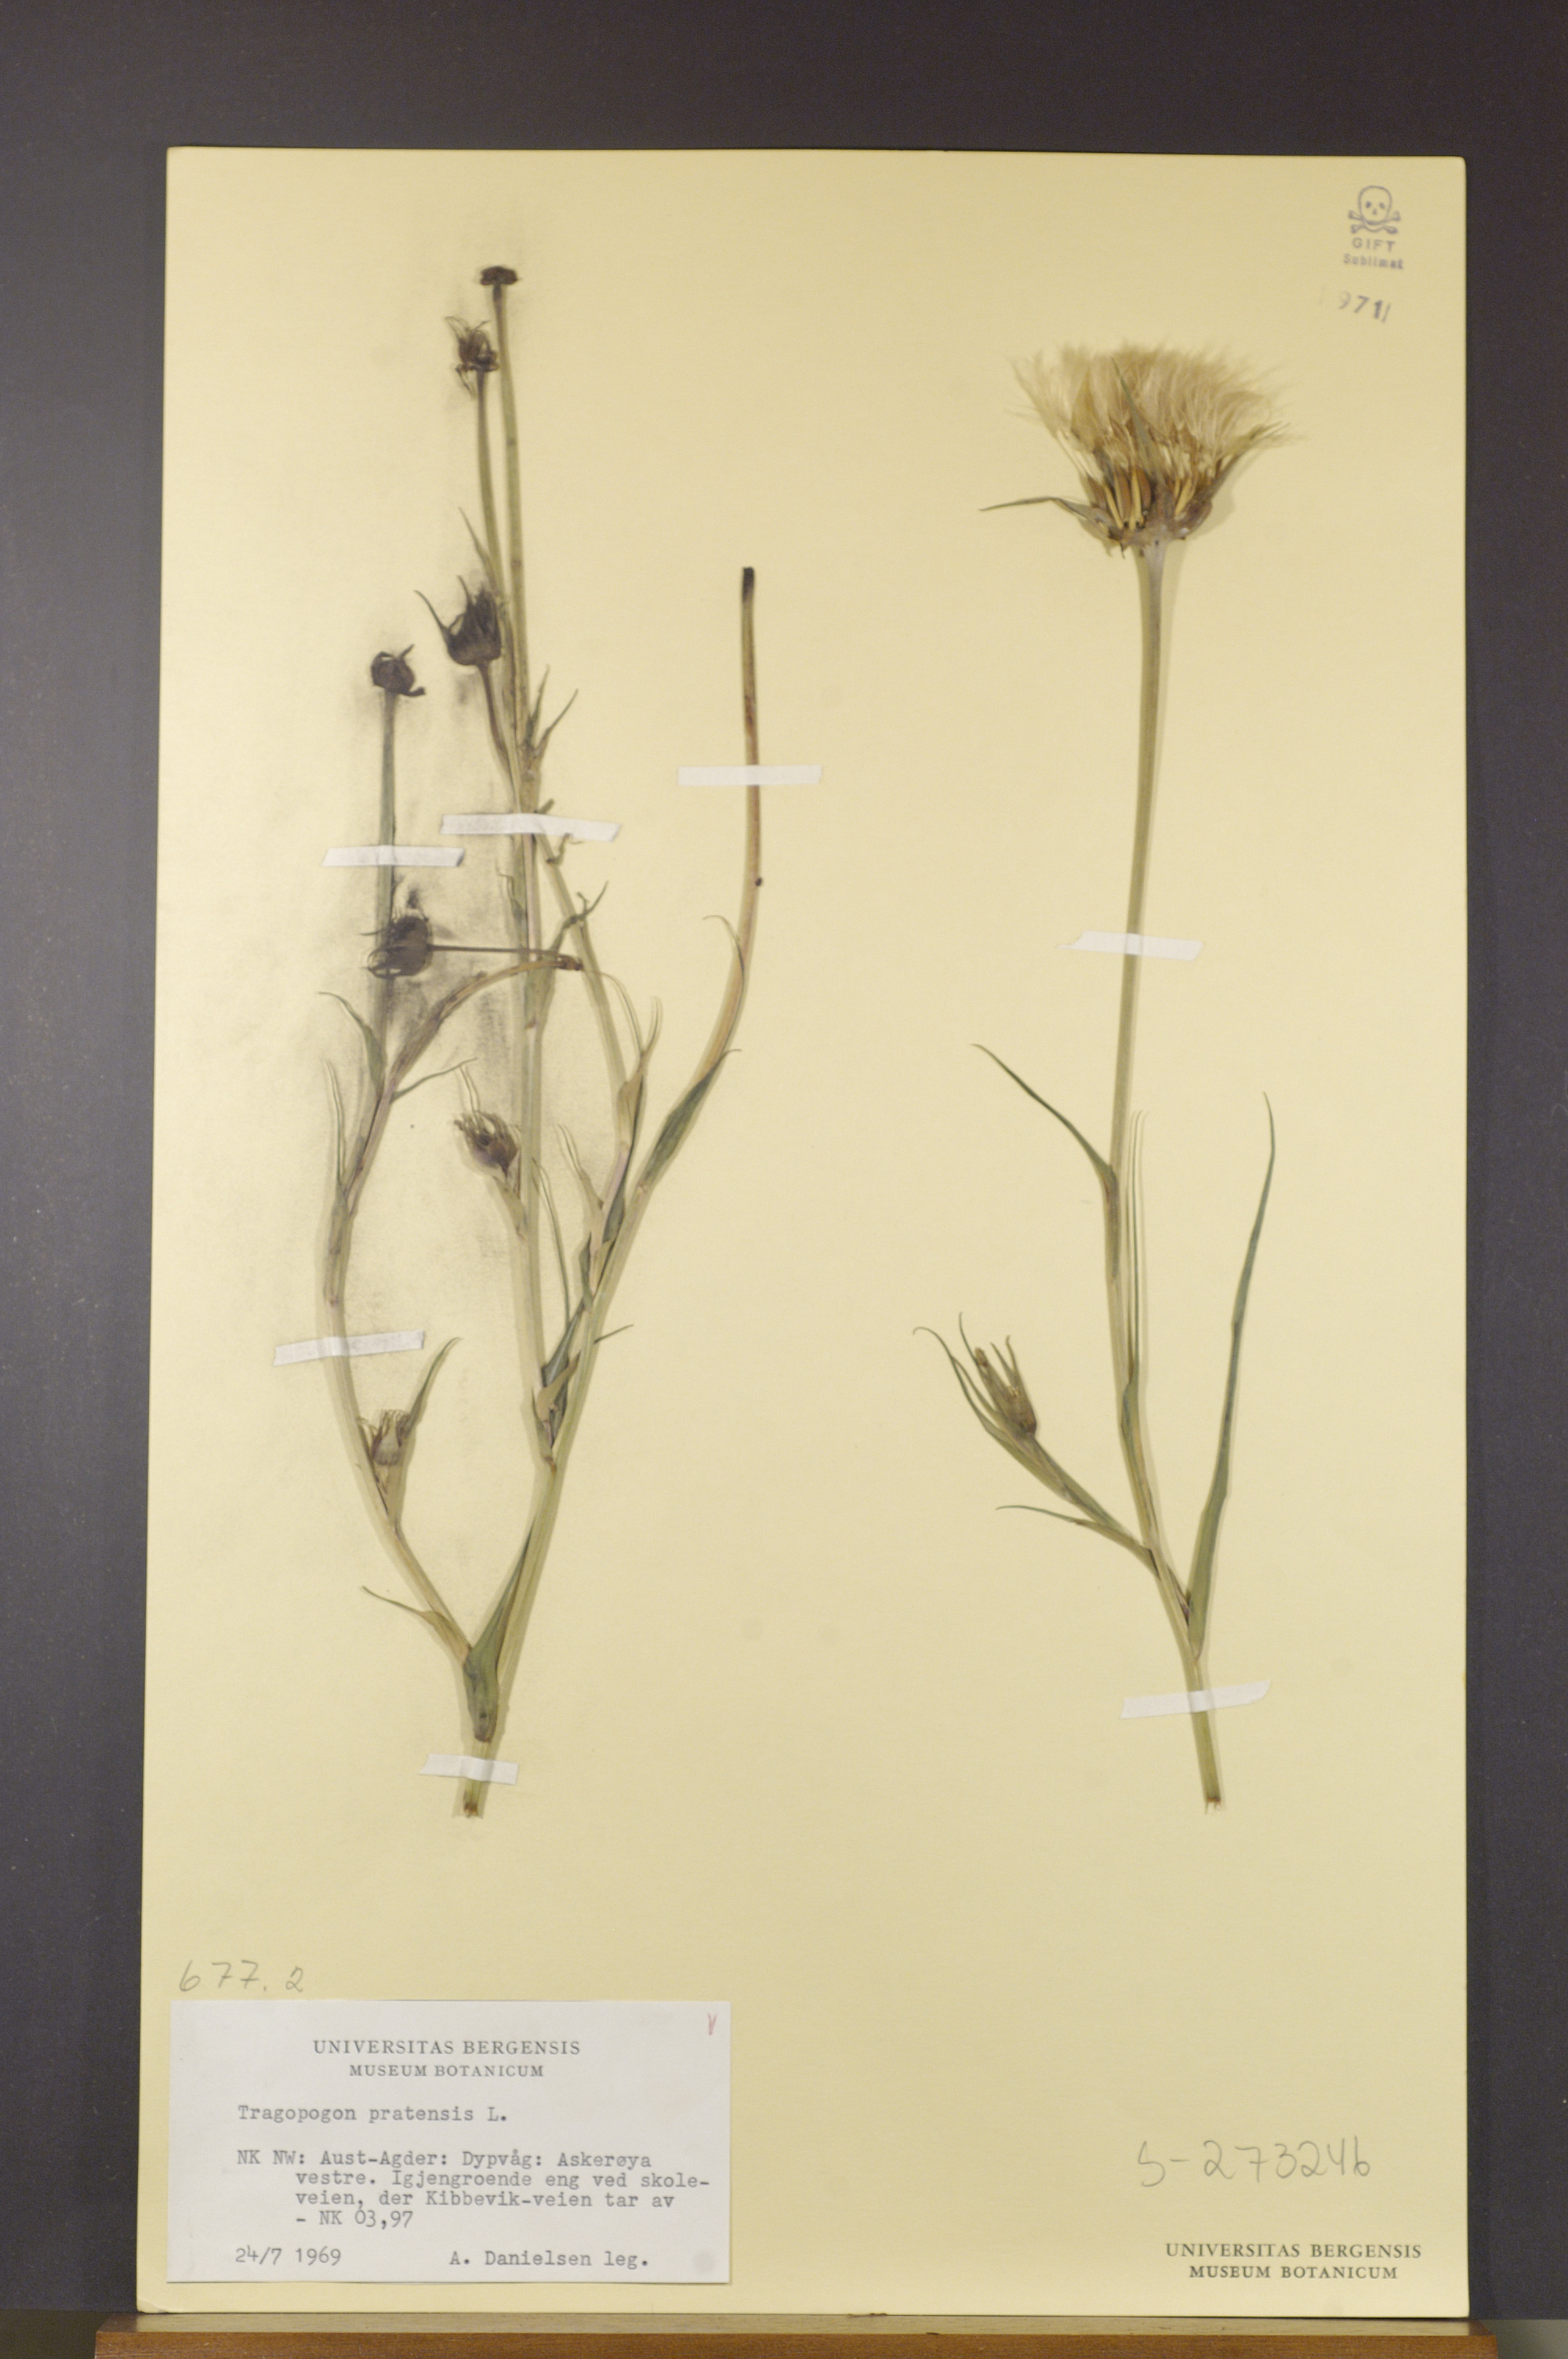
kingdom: Plantae
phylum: Tracheophyta
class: Magnoliopsida
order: Asterales
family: Asteraceae
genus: Tragopogon
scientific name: Tragopogon pratensis
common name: Goat's-beard
